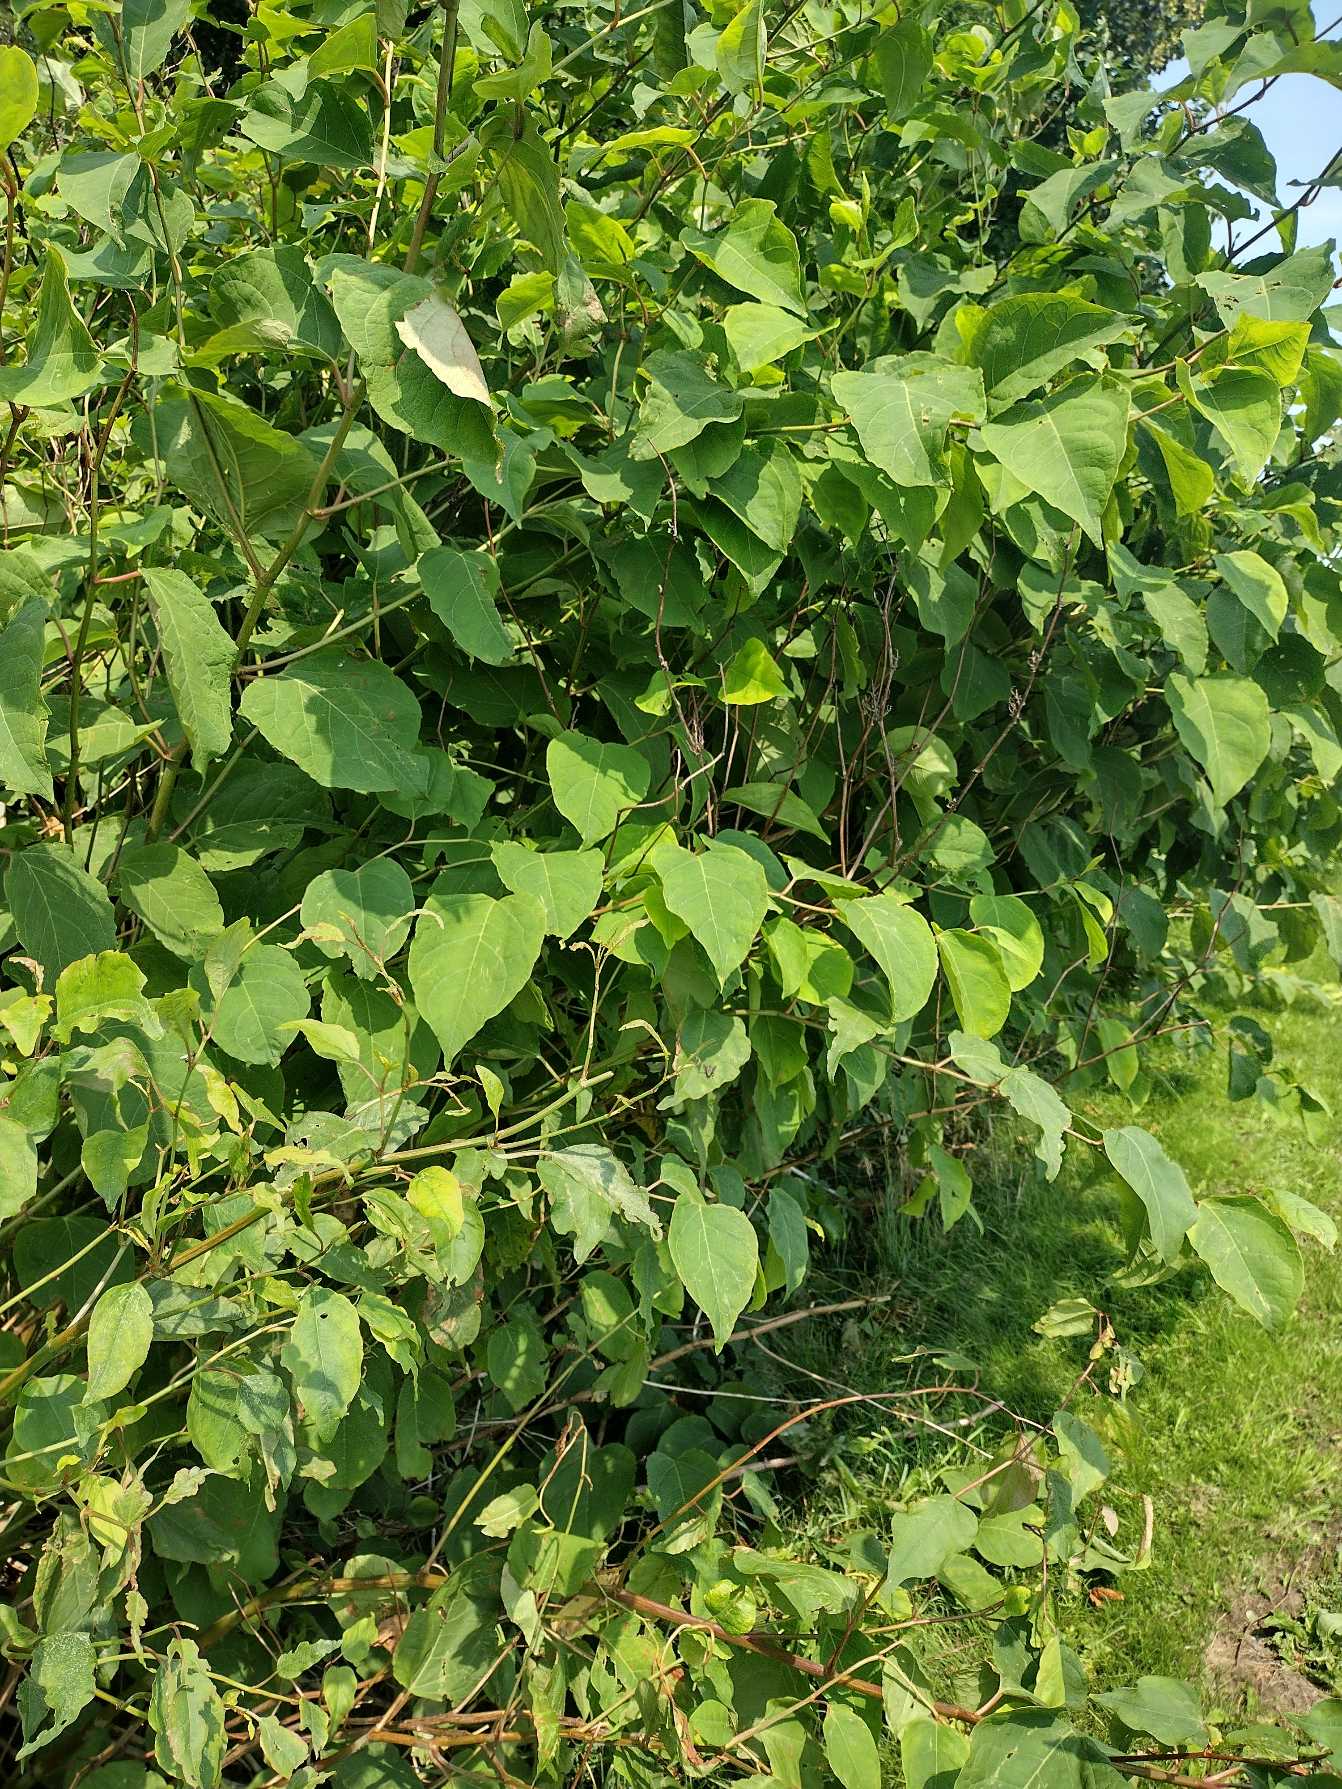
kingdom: Plantae
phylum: Tracheophyta
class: Magnoliopsida
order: Caryophyllales
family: Polygonaceae
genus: Reynoutria
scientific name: Reynoutria japonica
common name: Japan-pileurt
